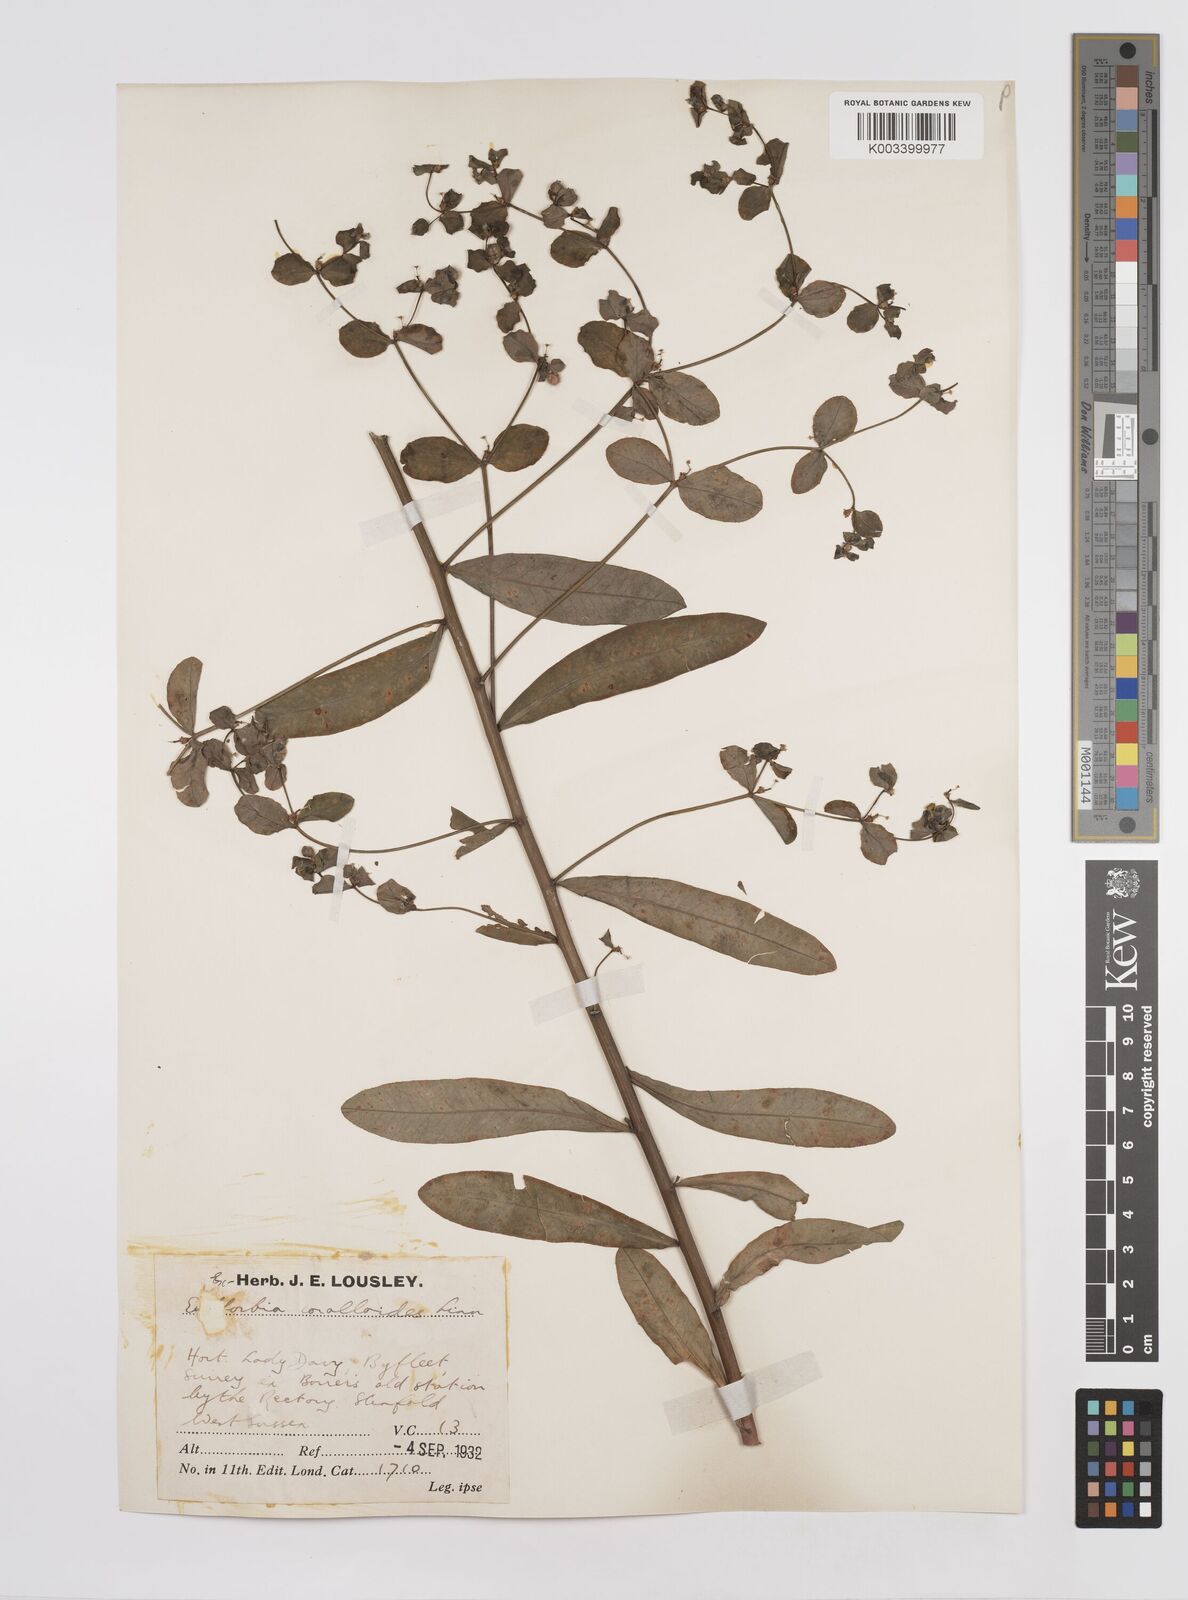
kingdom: Plantae
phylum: Tracheophyta
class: Magnoliopsida
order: Malpighiales
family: Euphorbiaceae
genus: Euphorbia
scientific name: Euphorbia corallioides
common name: Coral spurge
